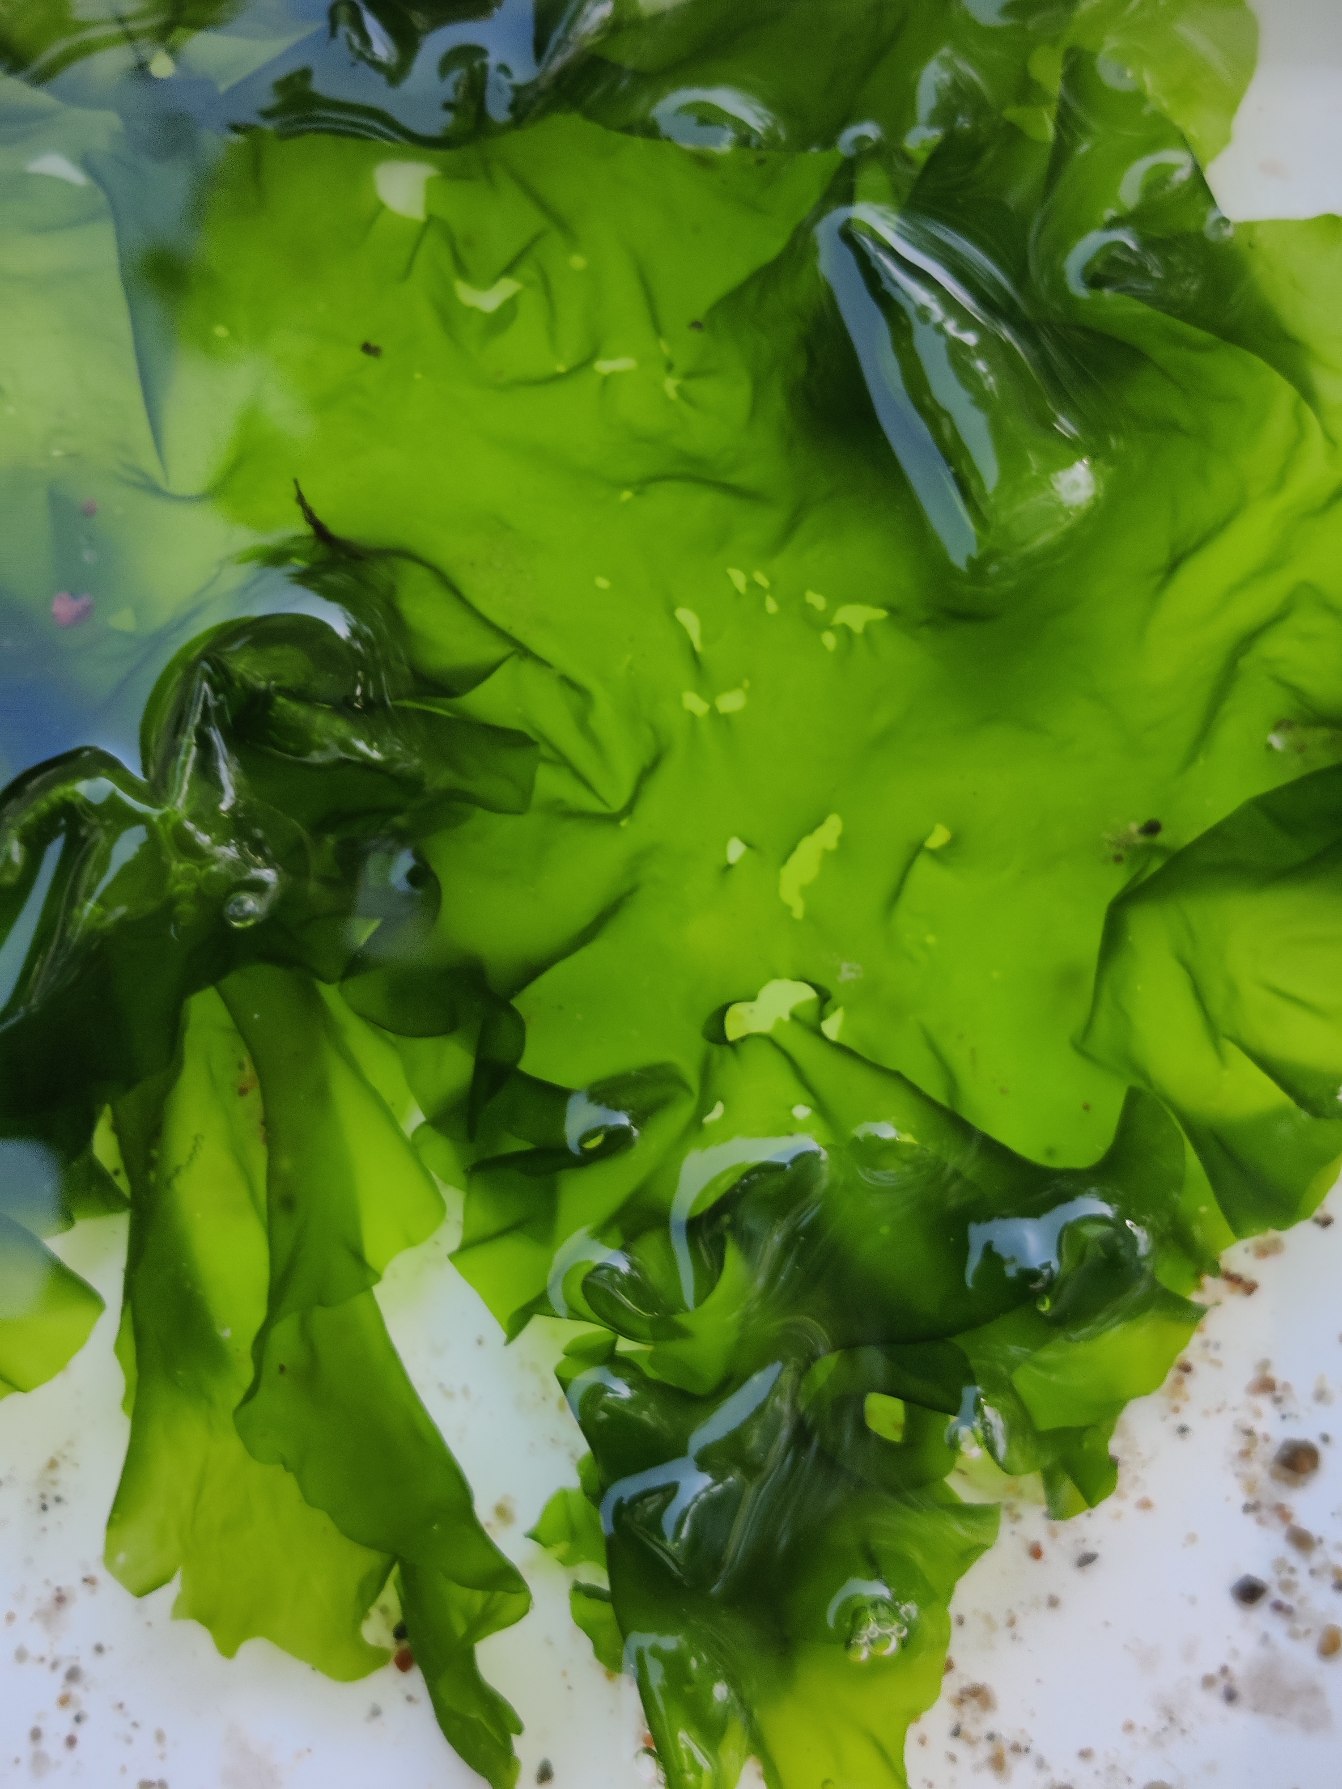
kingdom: Plantae
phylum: Chlorophyta
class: Ulvophyceae
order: Ulvales
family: Ulvaceae
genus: Ulva
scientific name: Ulva fenestrata
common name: Søsalat
